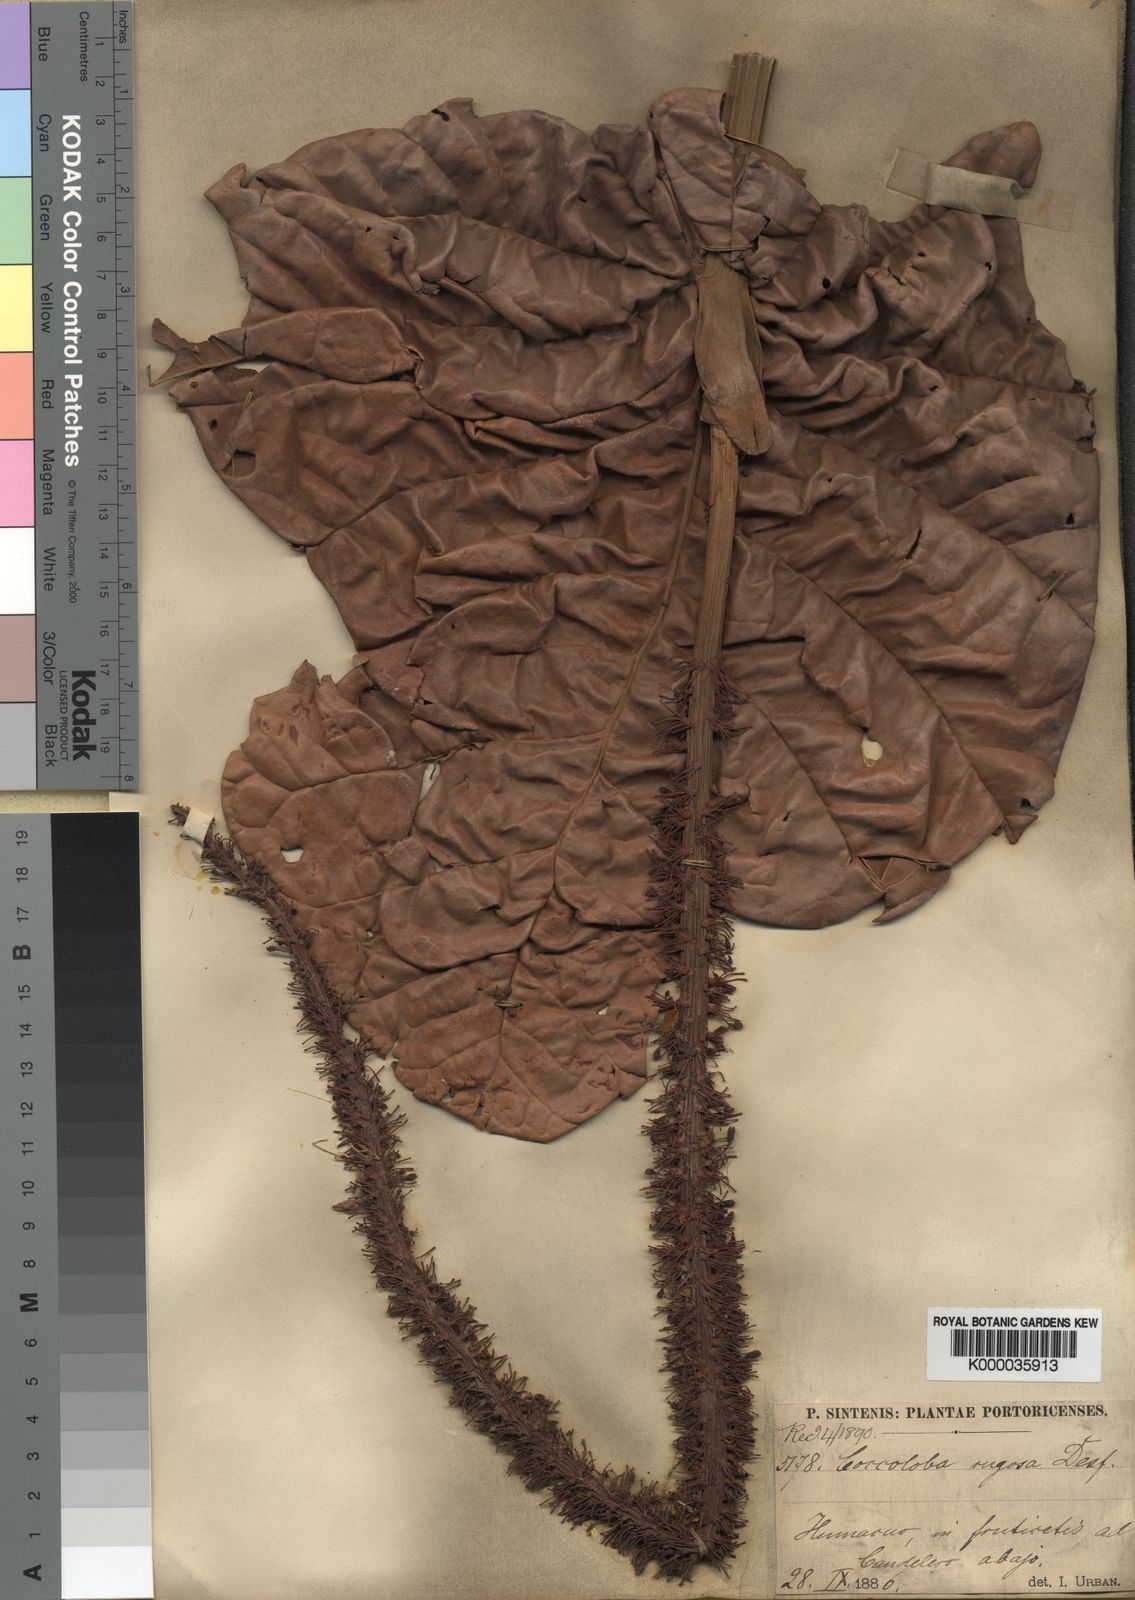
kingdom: Plantae
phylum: Tracheophyta
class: Magnoliopsida
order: Caryophyllales
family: Polygonaceae
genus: Coccoloba
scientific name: Coccoloba rugosa
